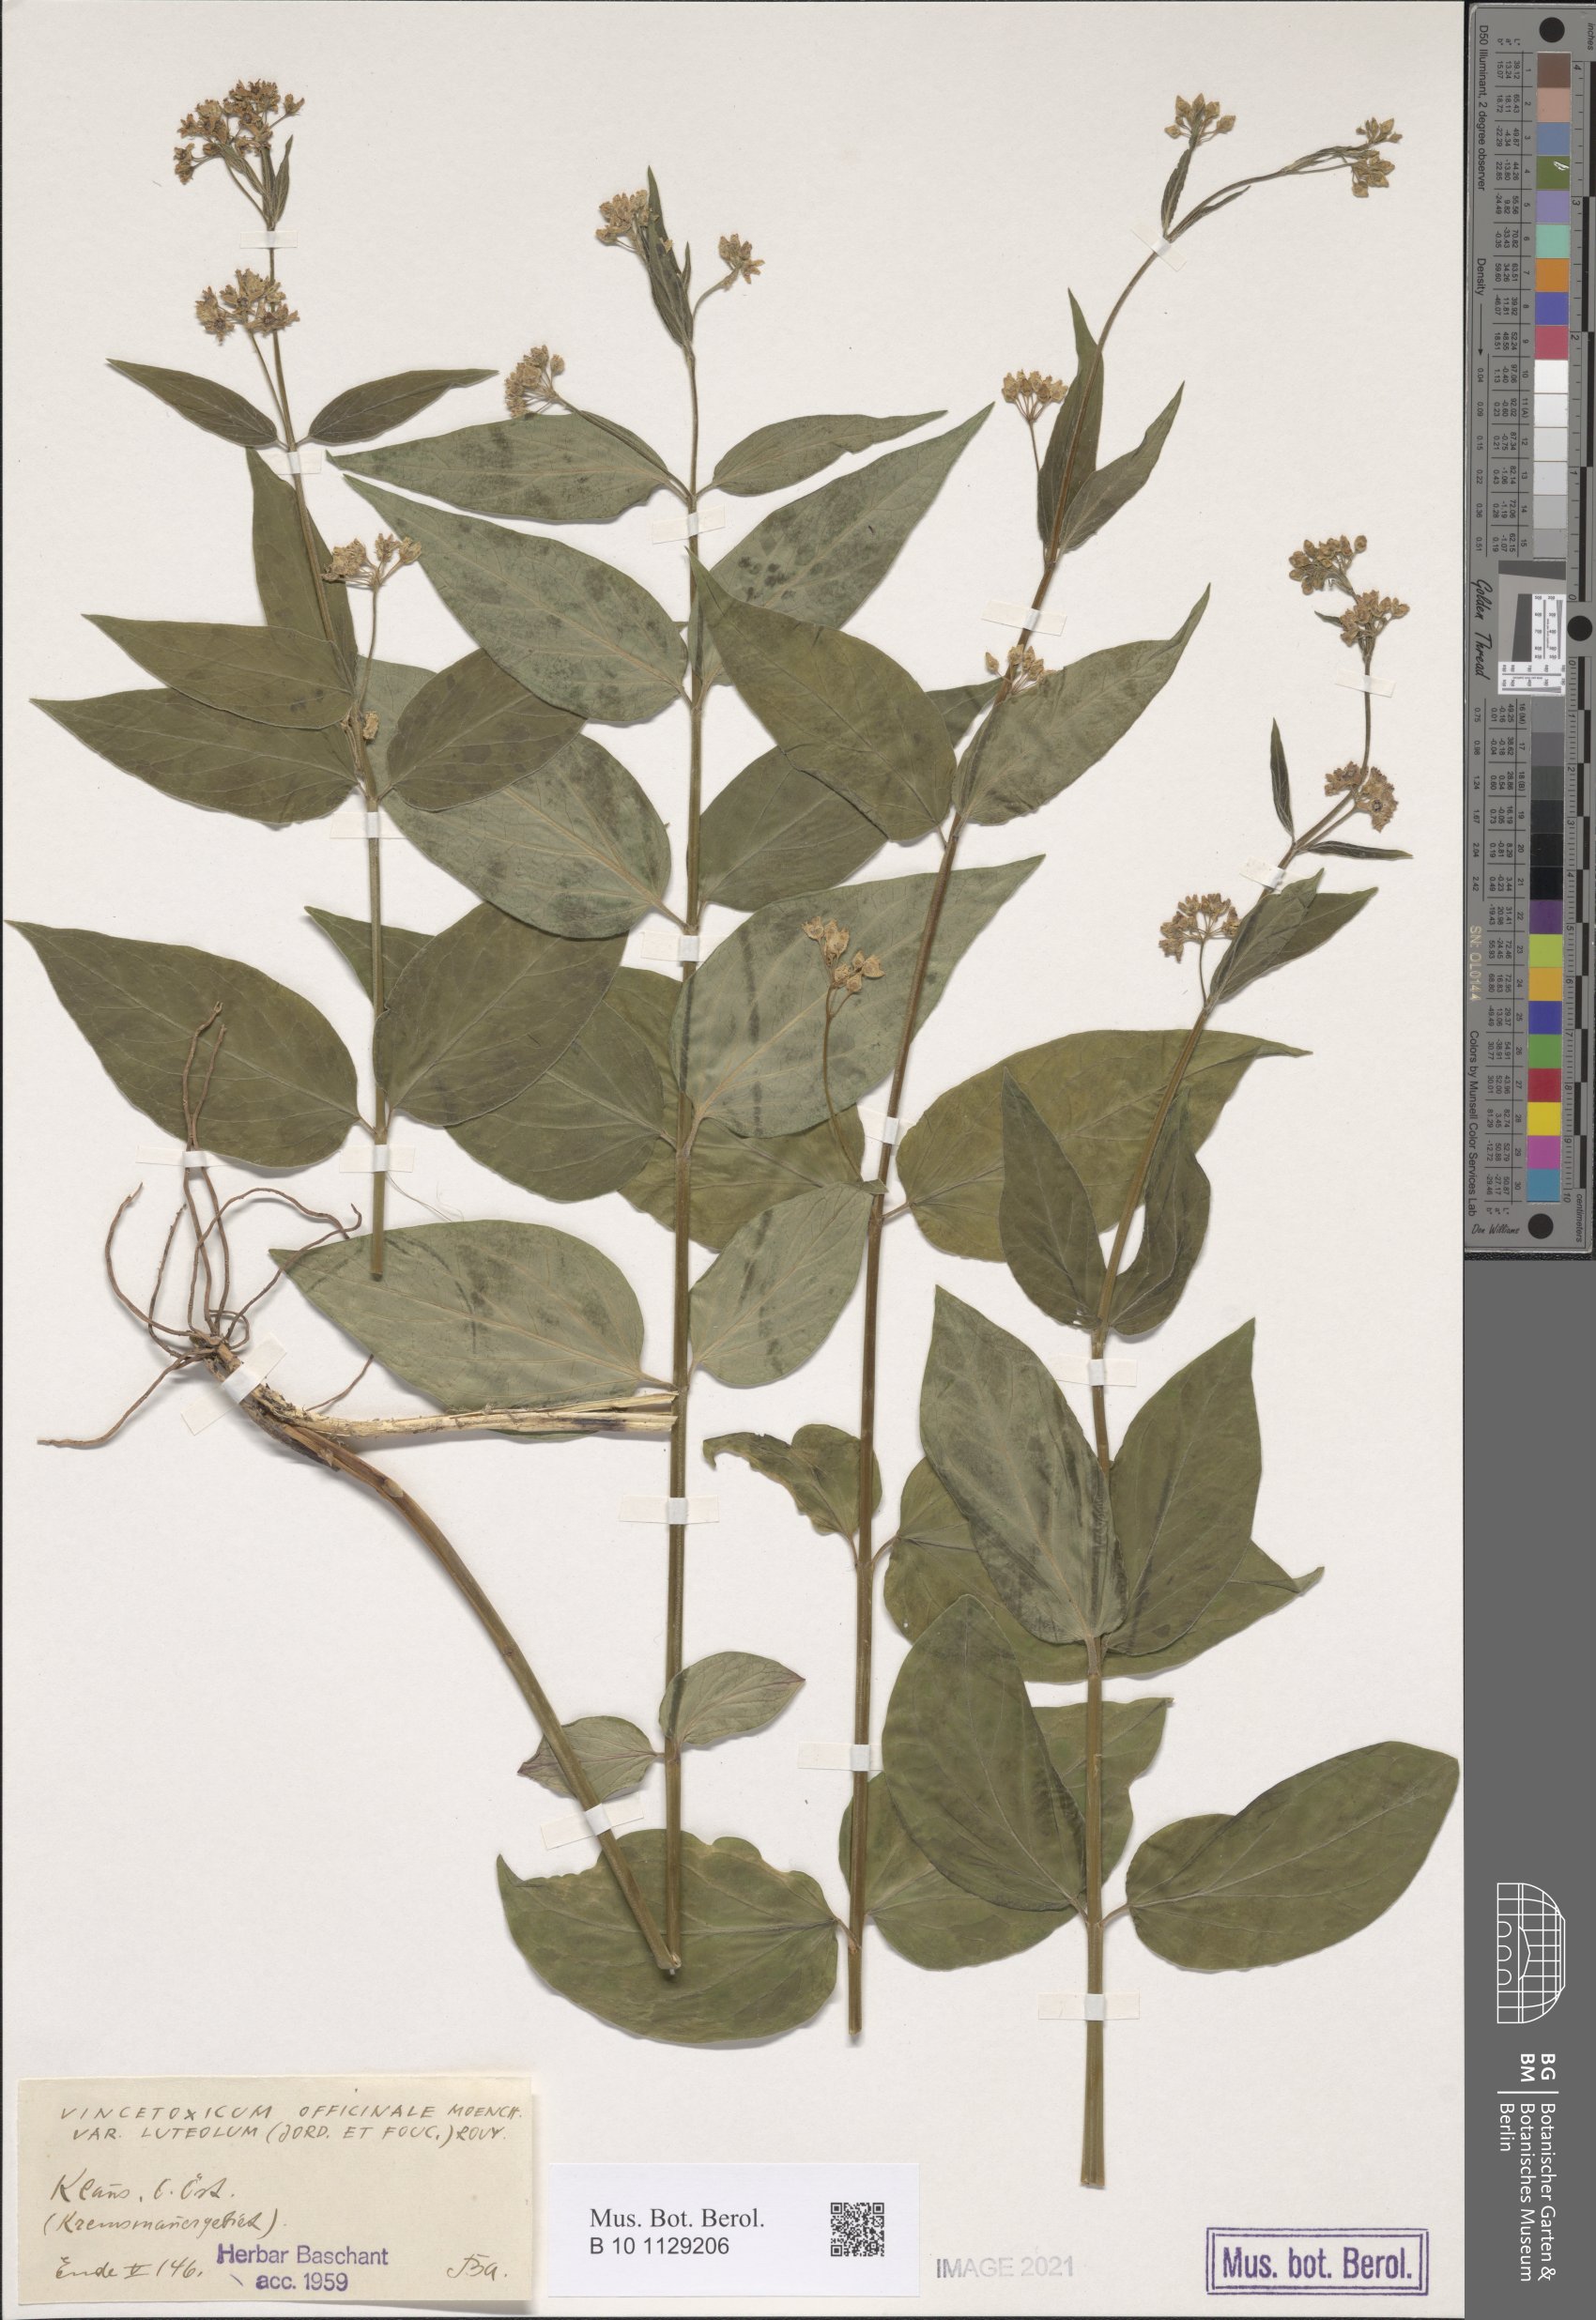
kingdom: Plantae
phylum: Tracheophyta
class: Magnoliopsida
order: Gentianales
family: Apocynaceae
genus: Vincetoxicum
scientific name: Vincetoxicum hirundinaria
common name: White swallowwort
